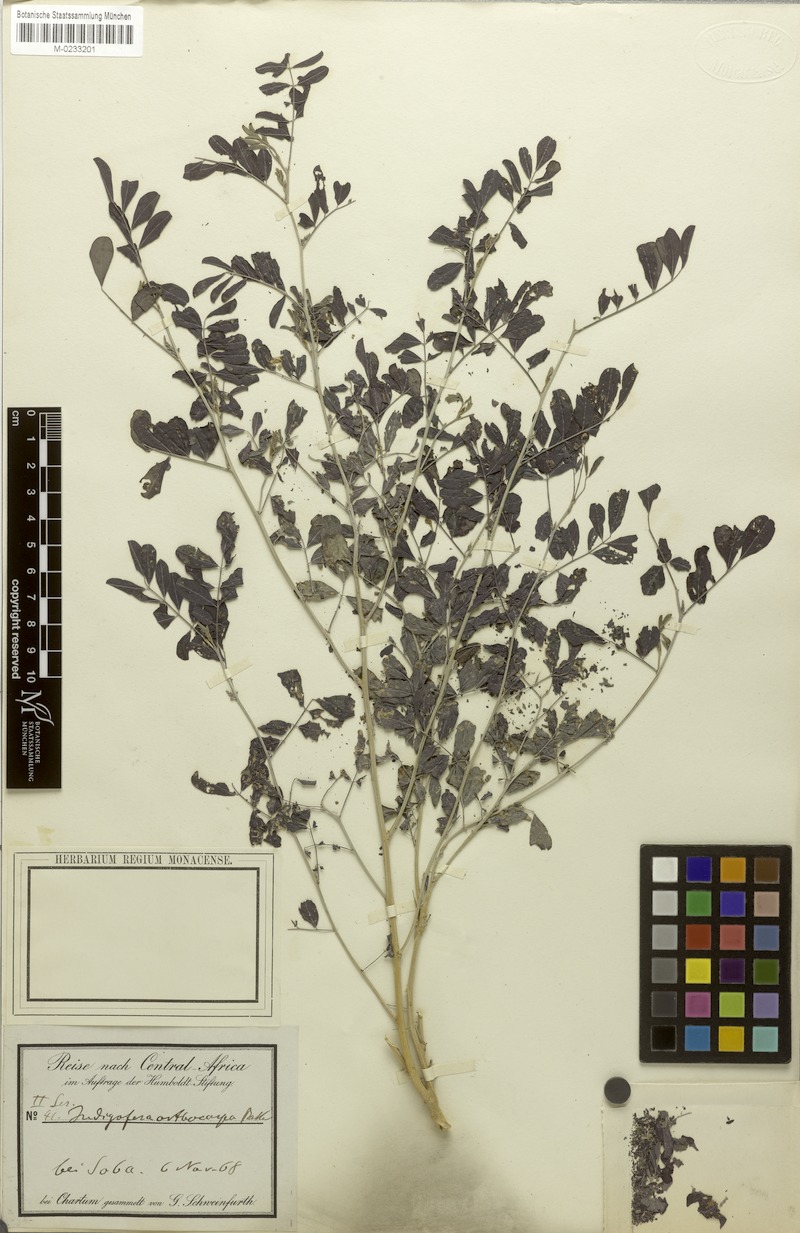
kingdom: Plantae
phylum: Tracheophyta
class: Magnoliopsida
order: Fabales
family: Fabaceae
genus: Indigofera
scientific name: Indigofera tinctoria
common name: True indigo
